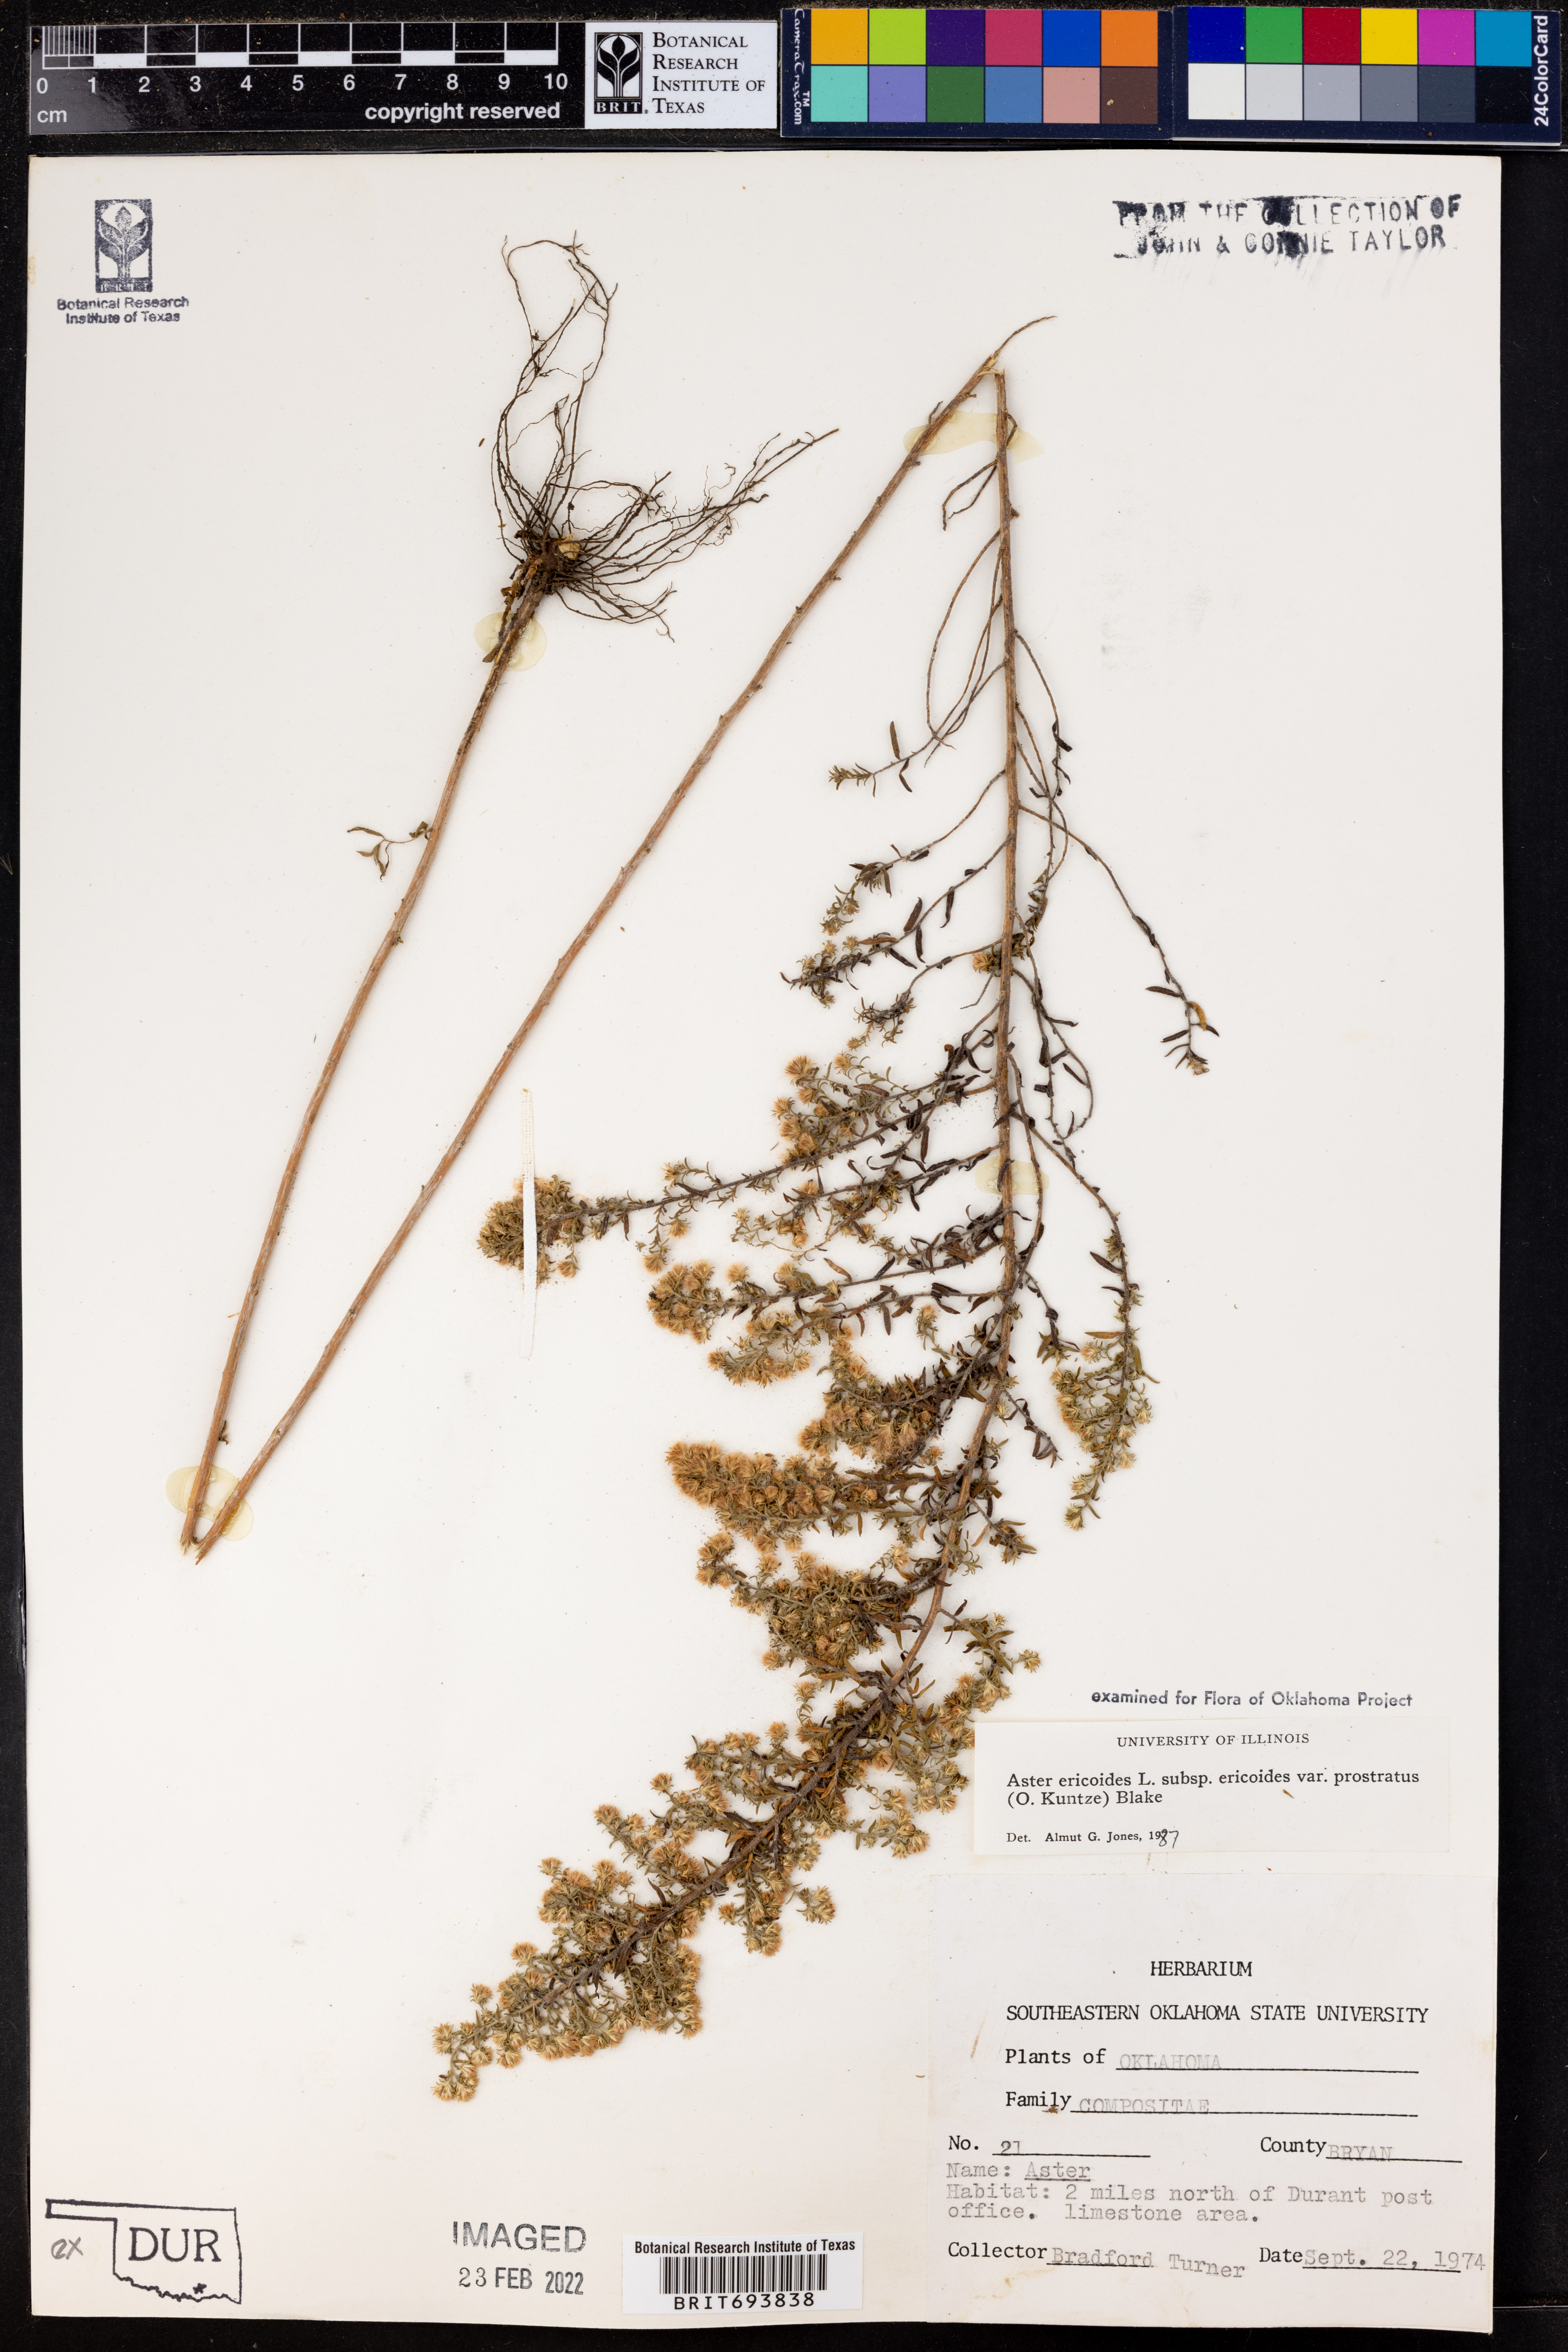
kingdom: Plantae
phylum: Tracheophyta
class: Magnoliopsida
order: Asterales
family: Asteraceae
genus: Symphyotrichum
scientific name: Symphyotrichum ericoides
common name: Heath aster
